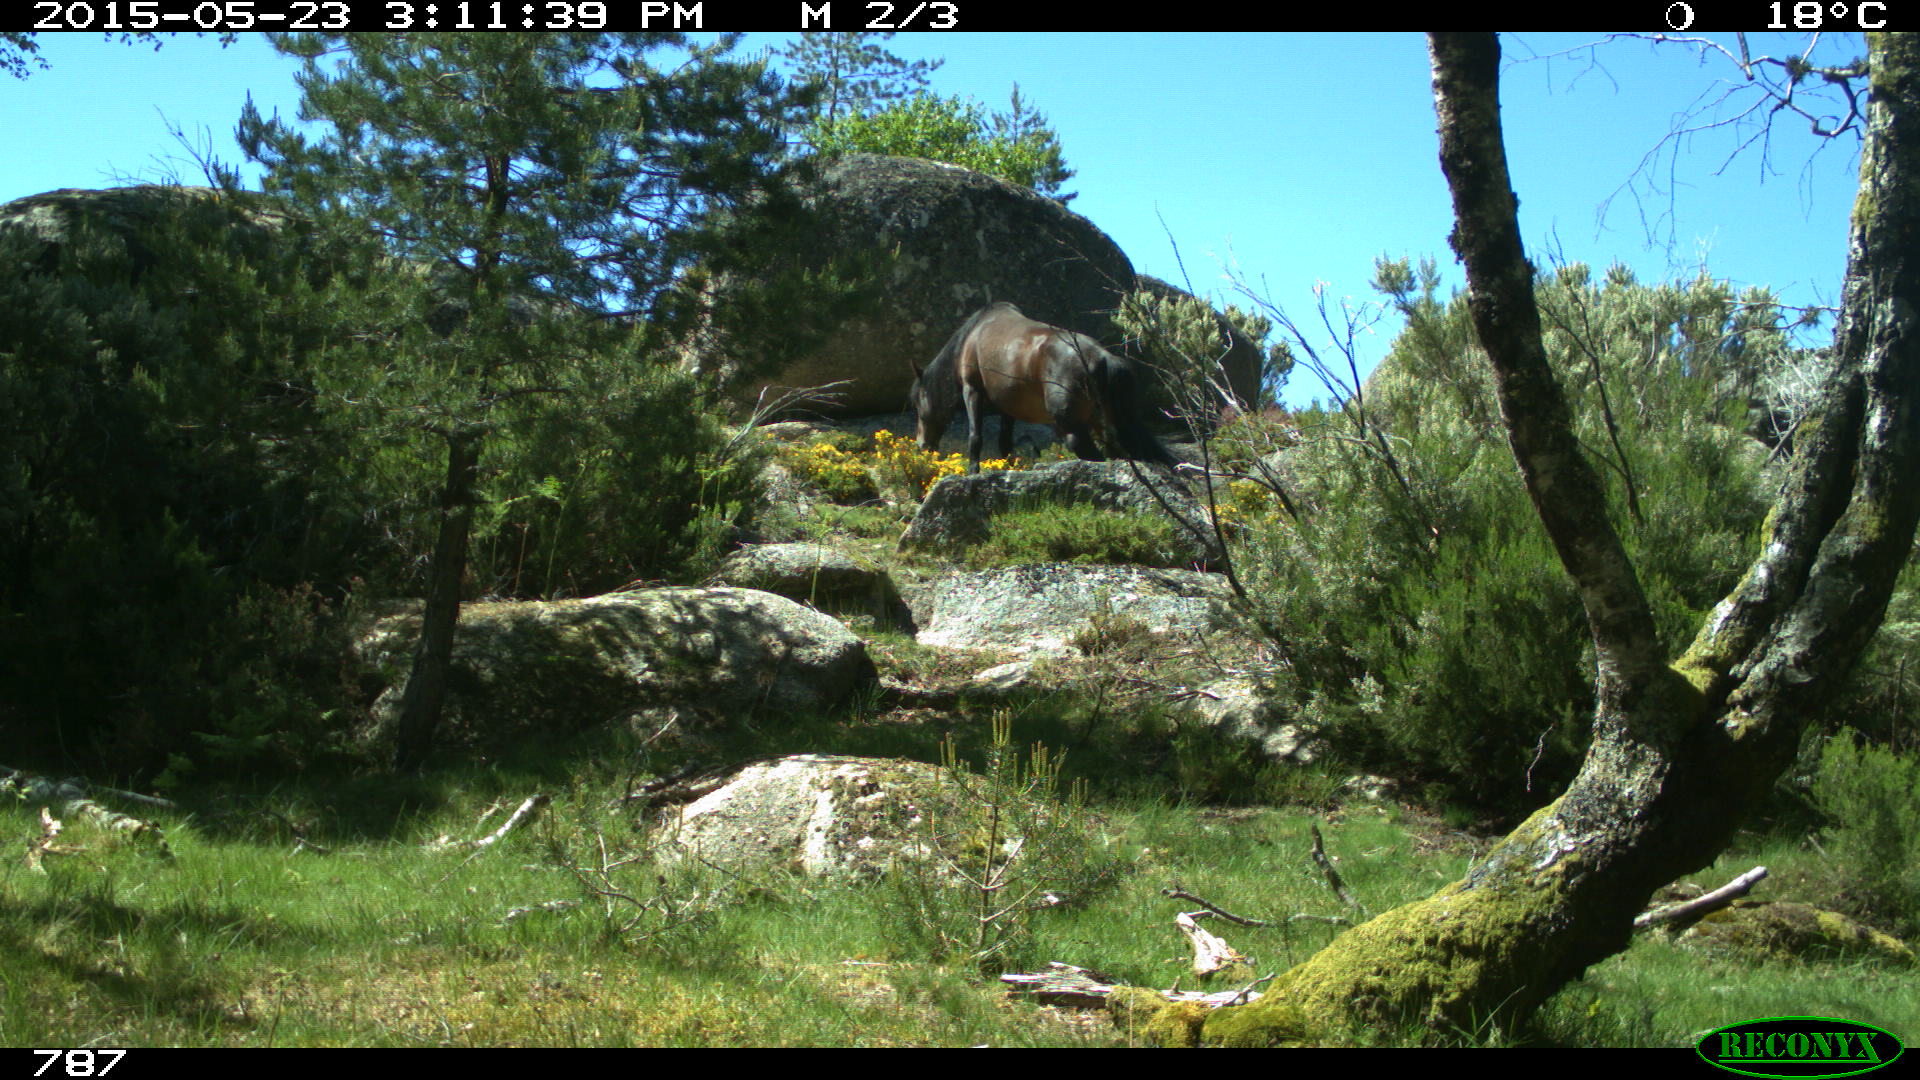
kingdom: Animalia
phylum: Chordata
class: Mammalia
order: Perissodactyla
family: Equidae
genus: Equus
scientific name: Equus caballus
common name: Horse
